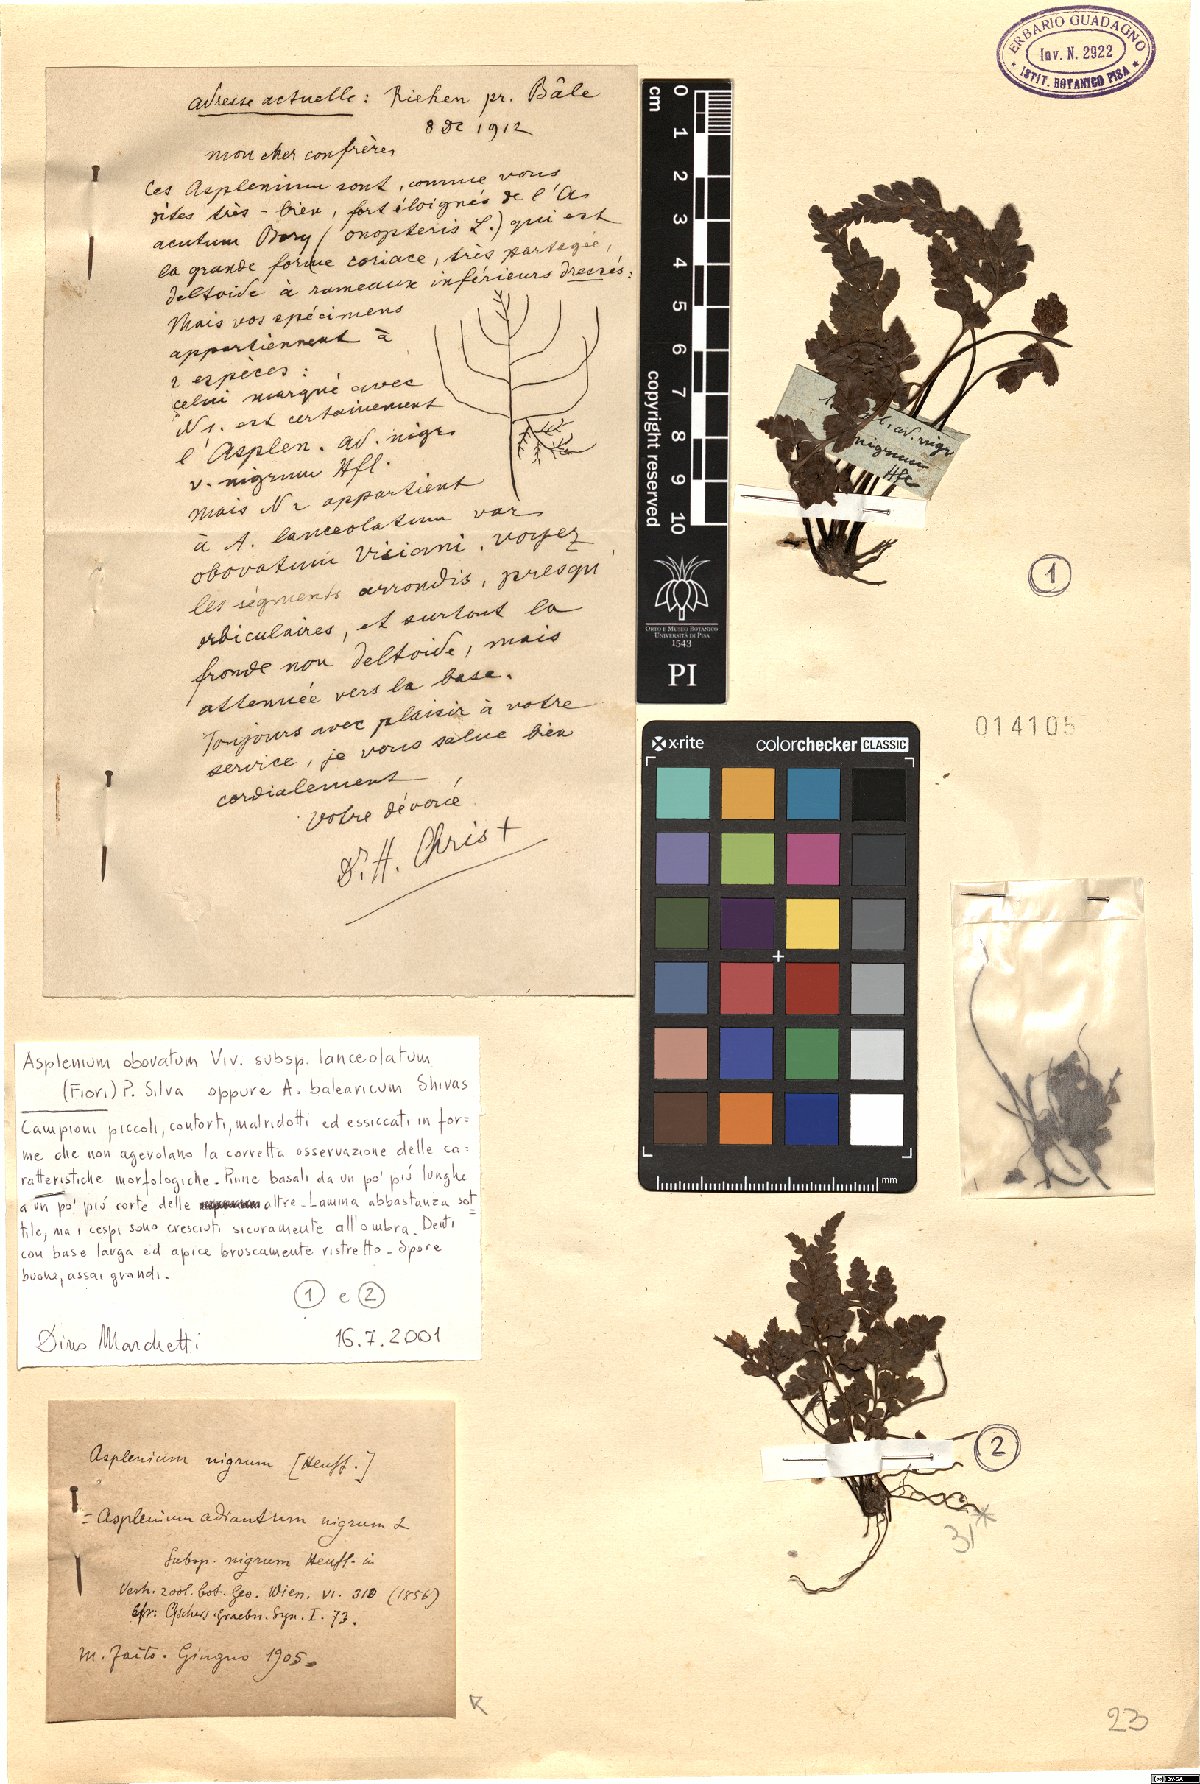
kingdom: Plantae
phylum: Tracheophyta
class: Polypodiopsida
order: Polypodiales
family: Aspleniaceae
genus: Asplenium
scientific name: Asplenium balearicum
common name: Balearean spleenwort
